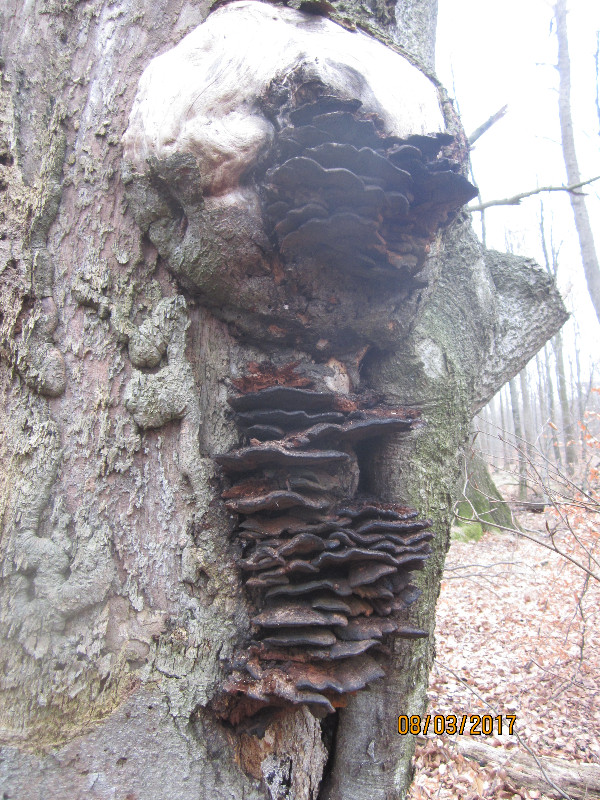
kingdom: Fungi
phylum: Basidiomycota
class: Agaricomycetes
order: Hymenochaetales
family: Hymenochaetaceae
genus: Inonotus
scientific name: Inonotus cuticularis
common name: kroghåret spejlporesvamp
